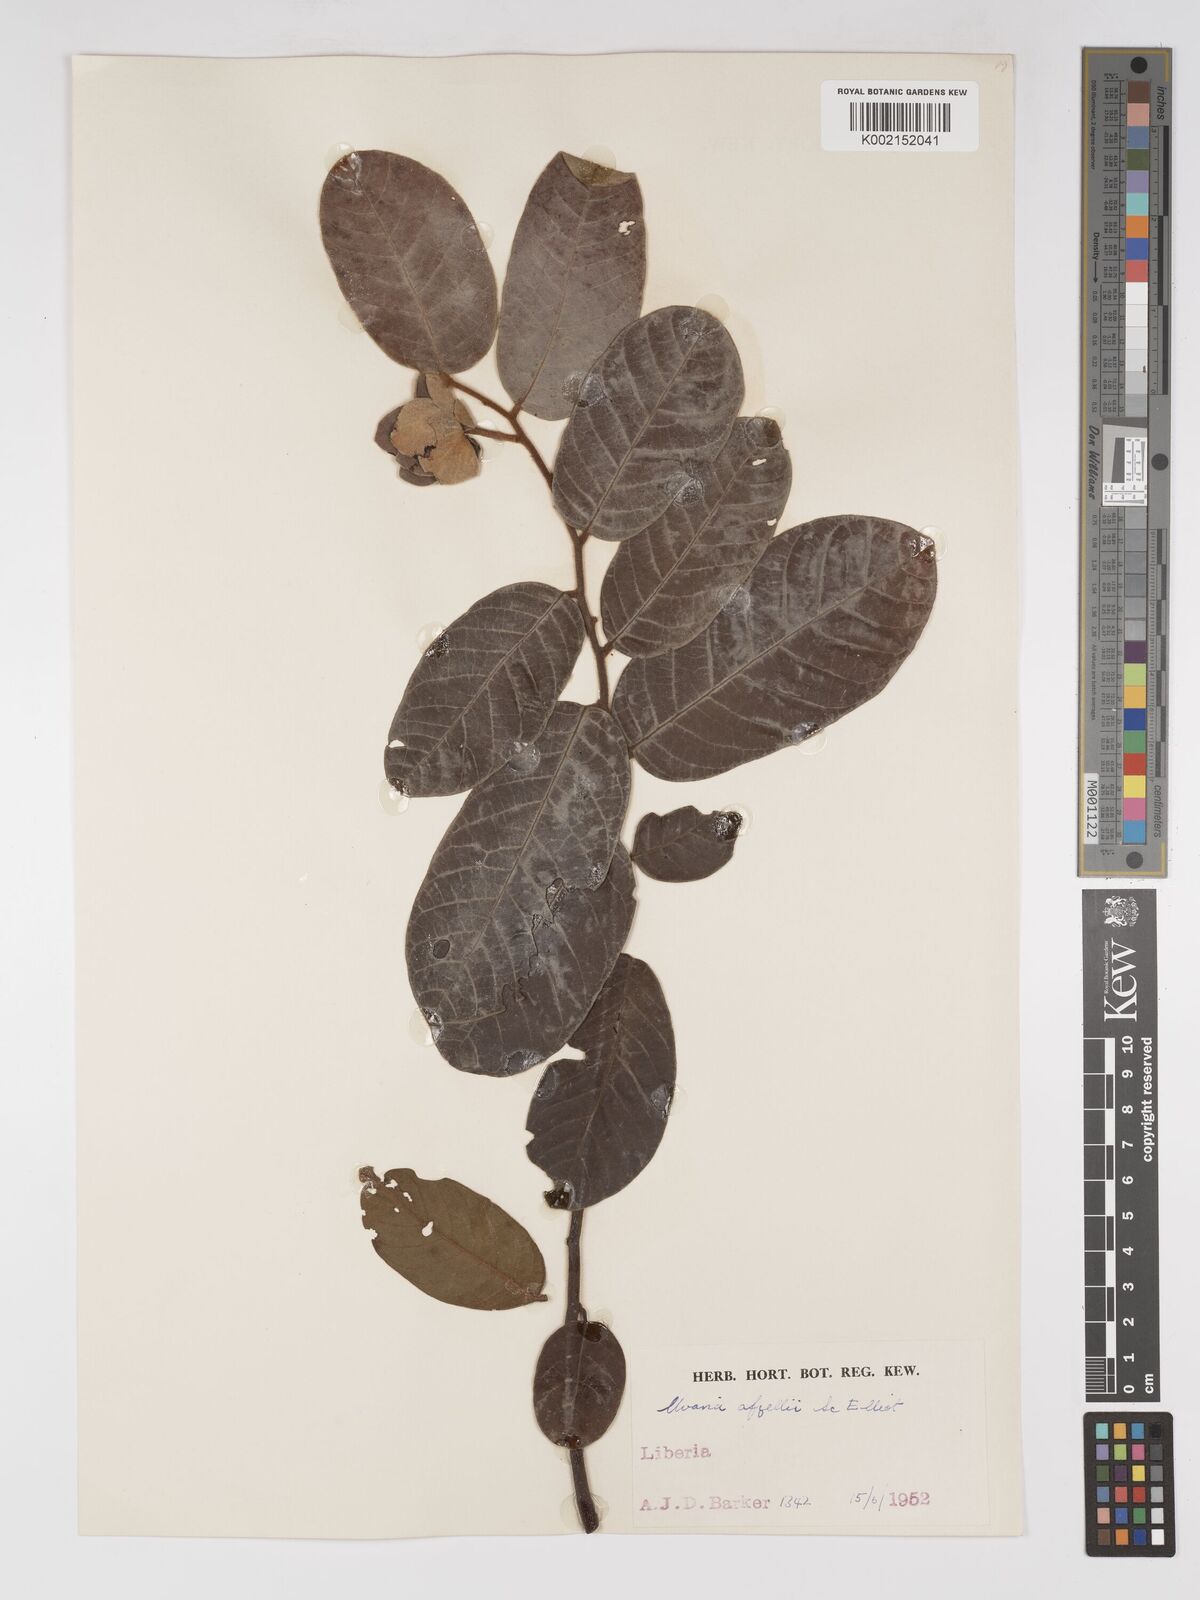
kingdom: Plantae
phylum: Tracheophyta
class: Magnoliopsida
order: Magnoliales
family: Annonaceae
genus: Uvaria
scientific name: Uvaria afzelii
